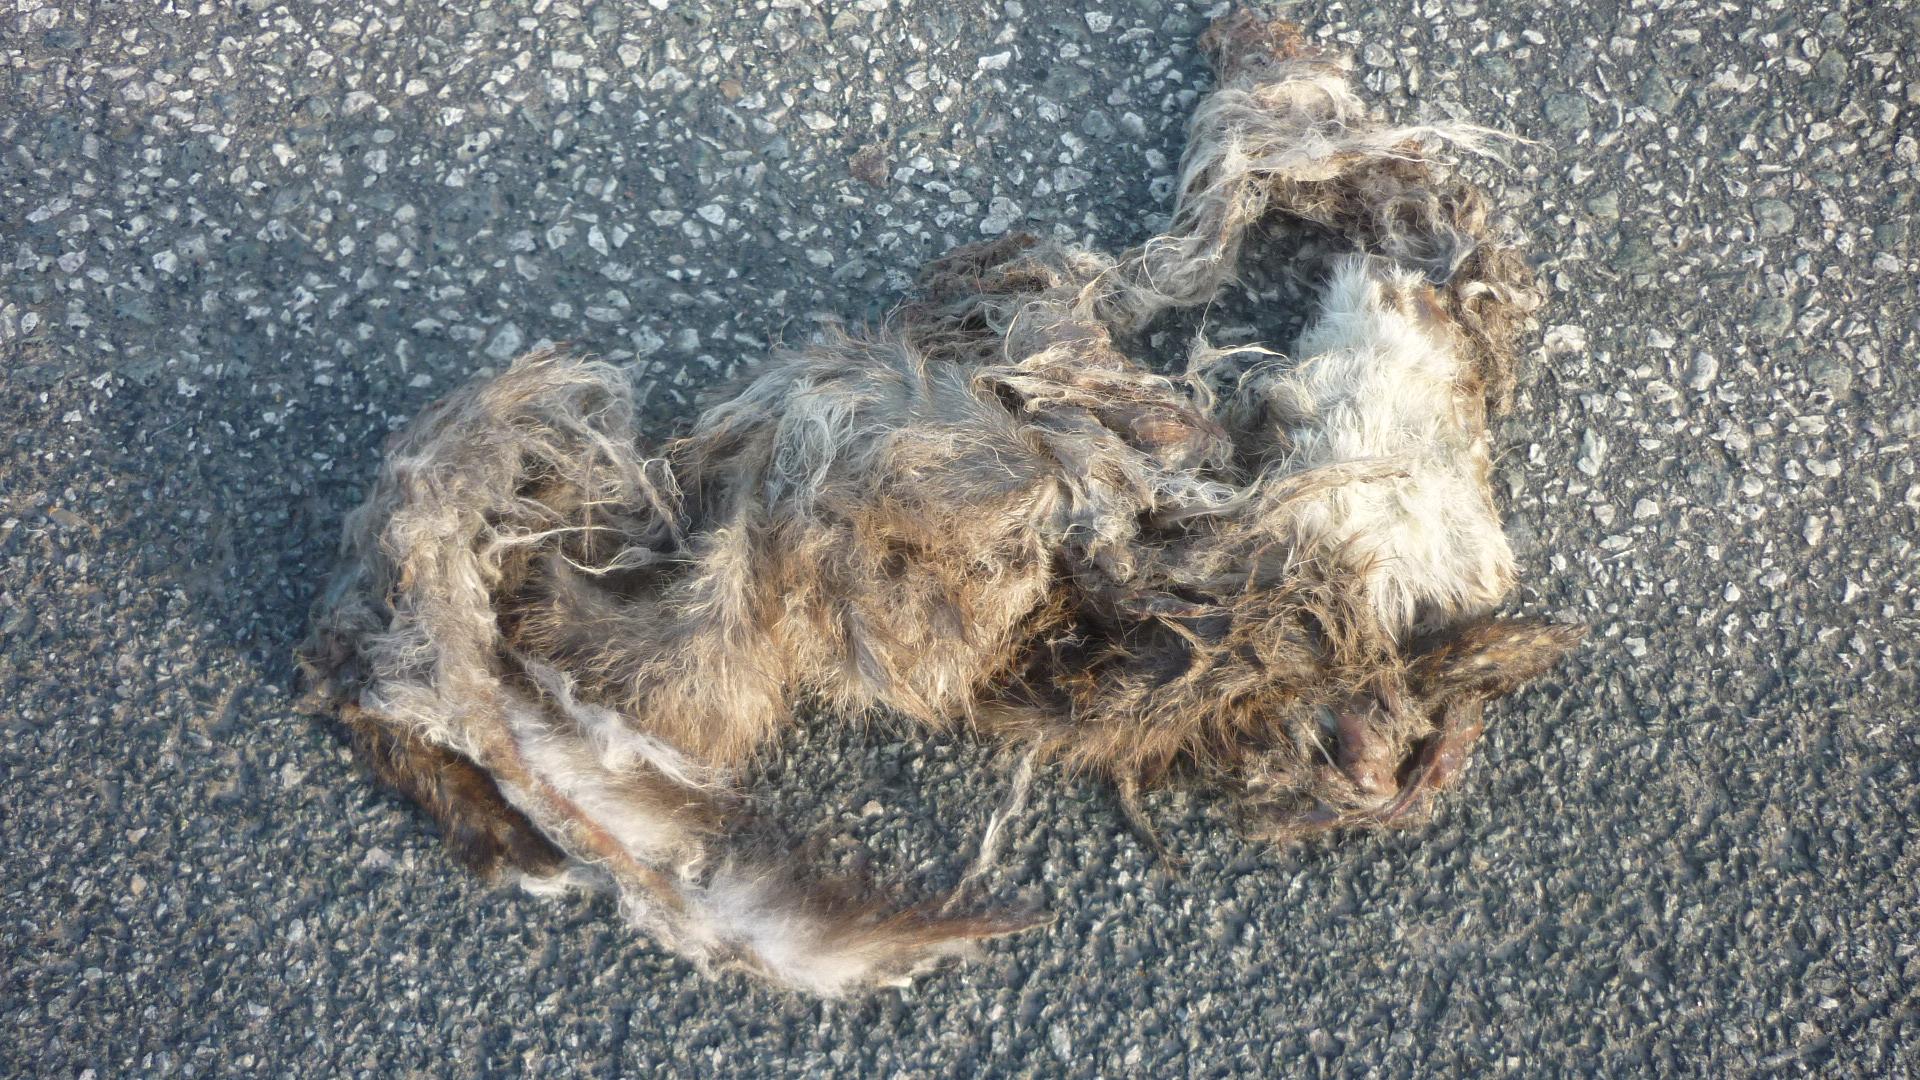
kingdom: Animalia
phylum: Chordata
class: Mammalia
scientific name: Mammalia
